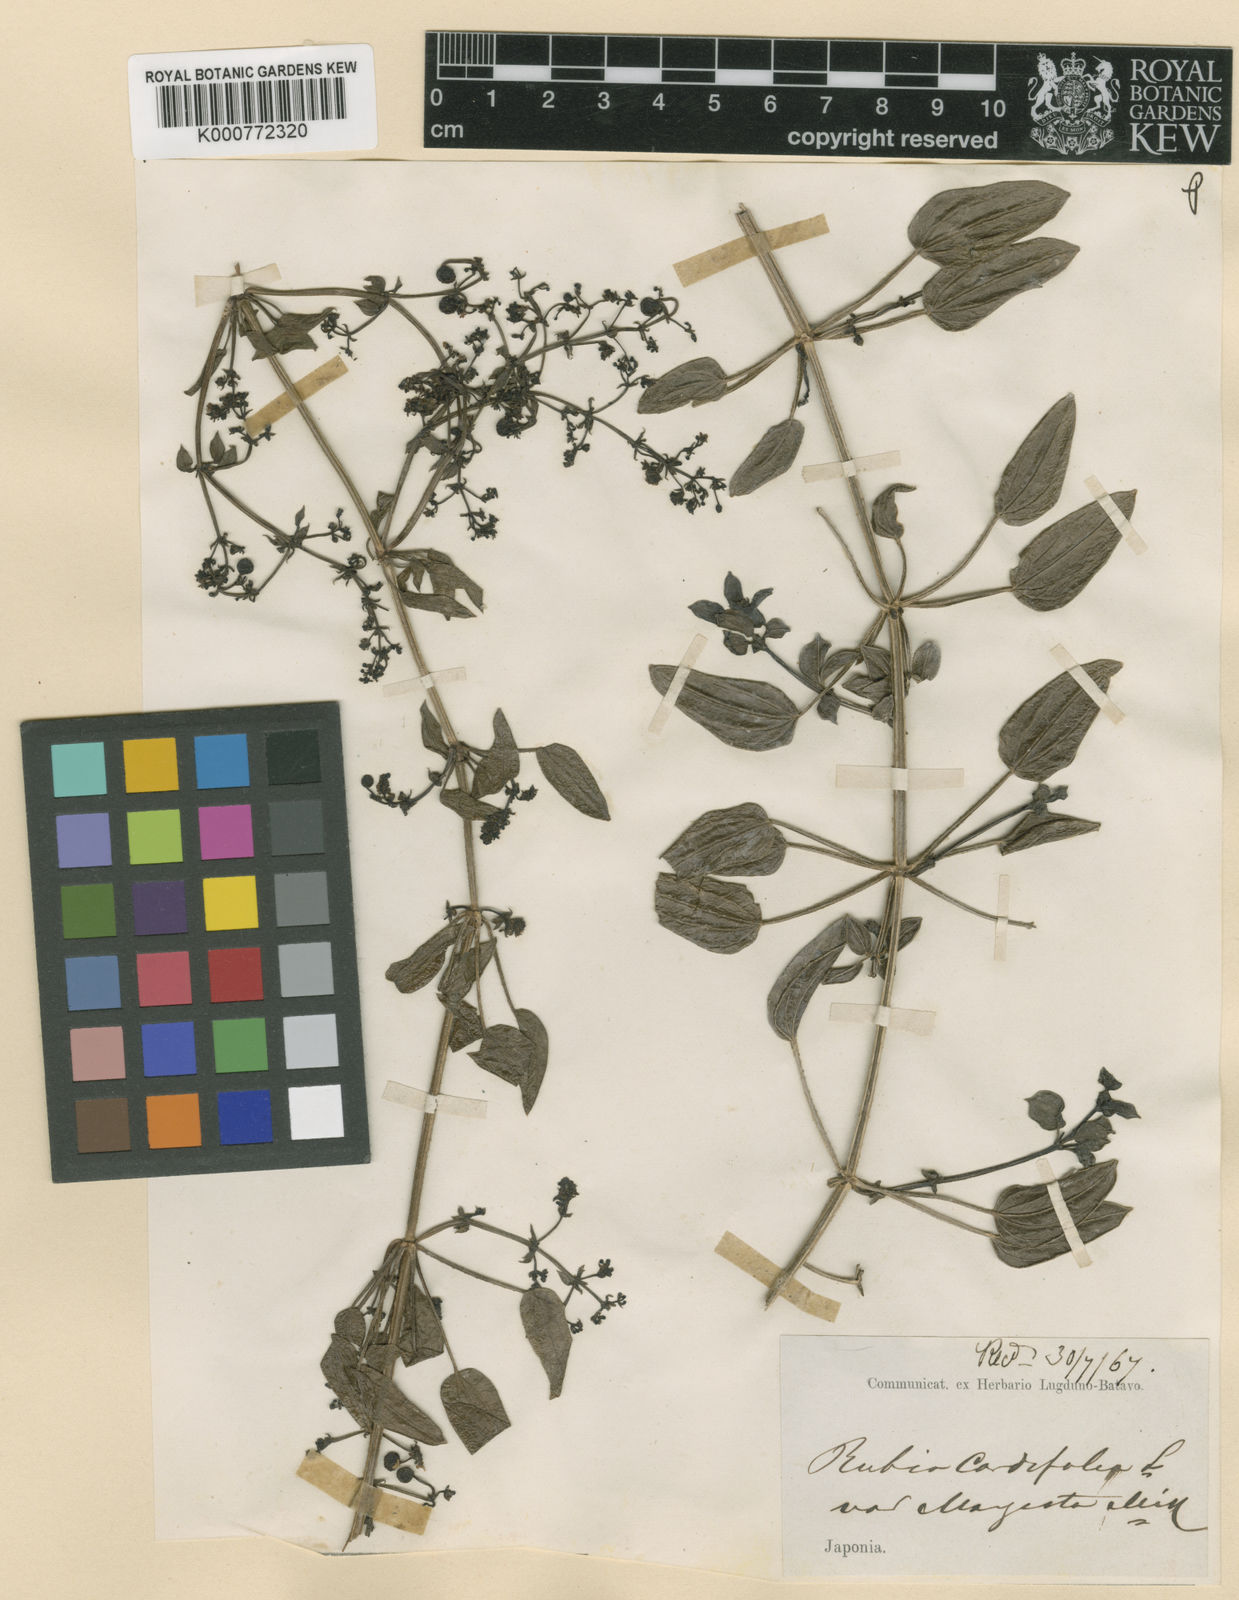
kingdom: Plantae
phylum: Tracheophyta
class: Magnoliopsida
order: Gentianales
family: Rubiaceae
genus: Rubia
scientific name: Rubia cordifolia
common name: Indian madder
